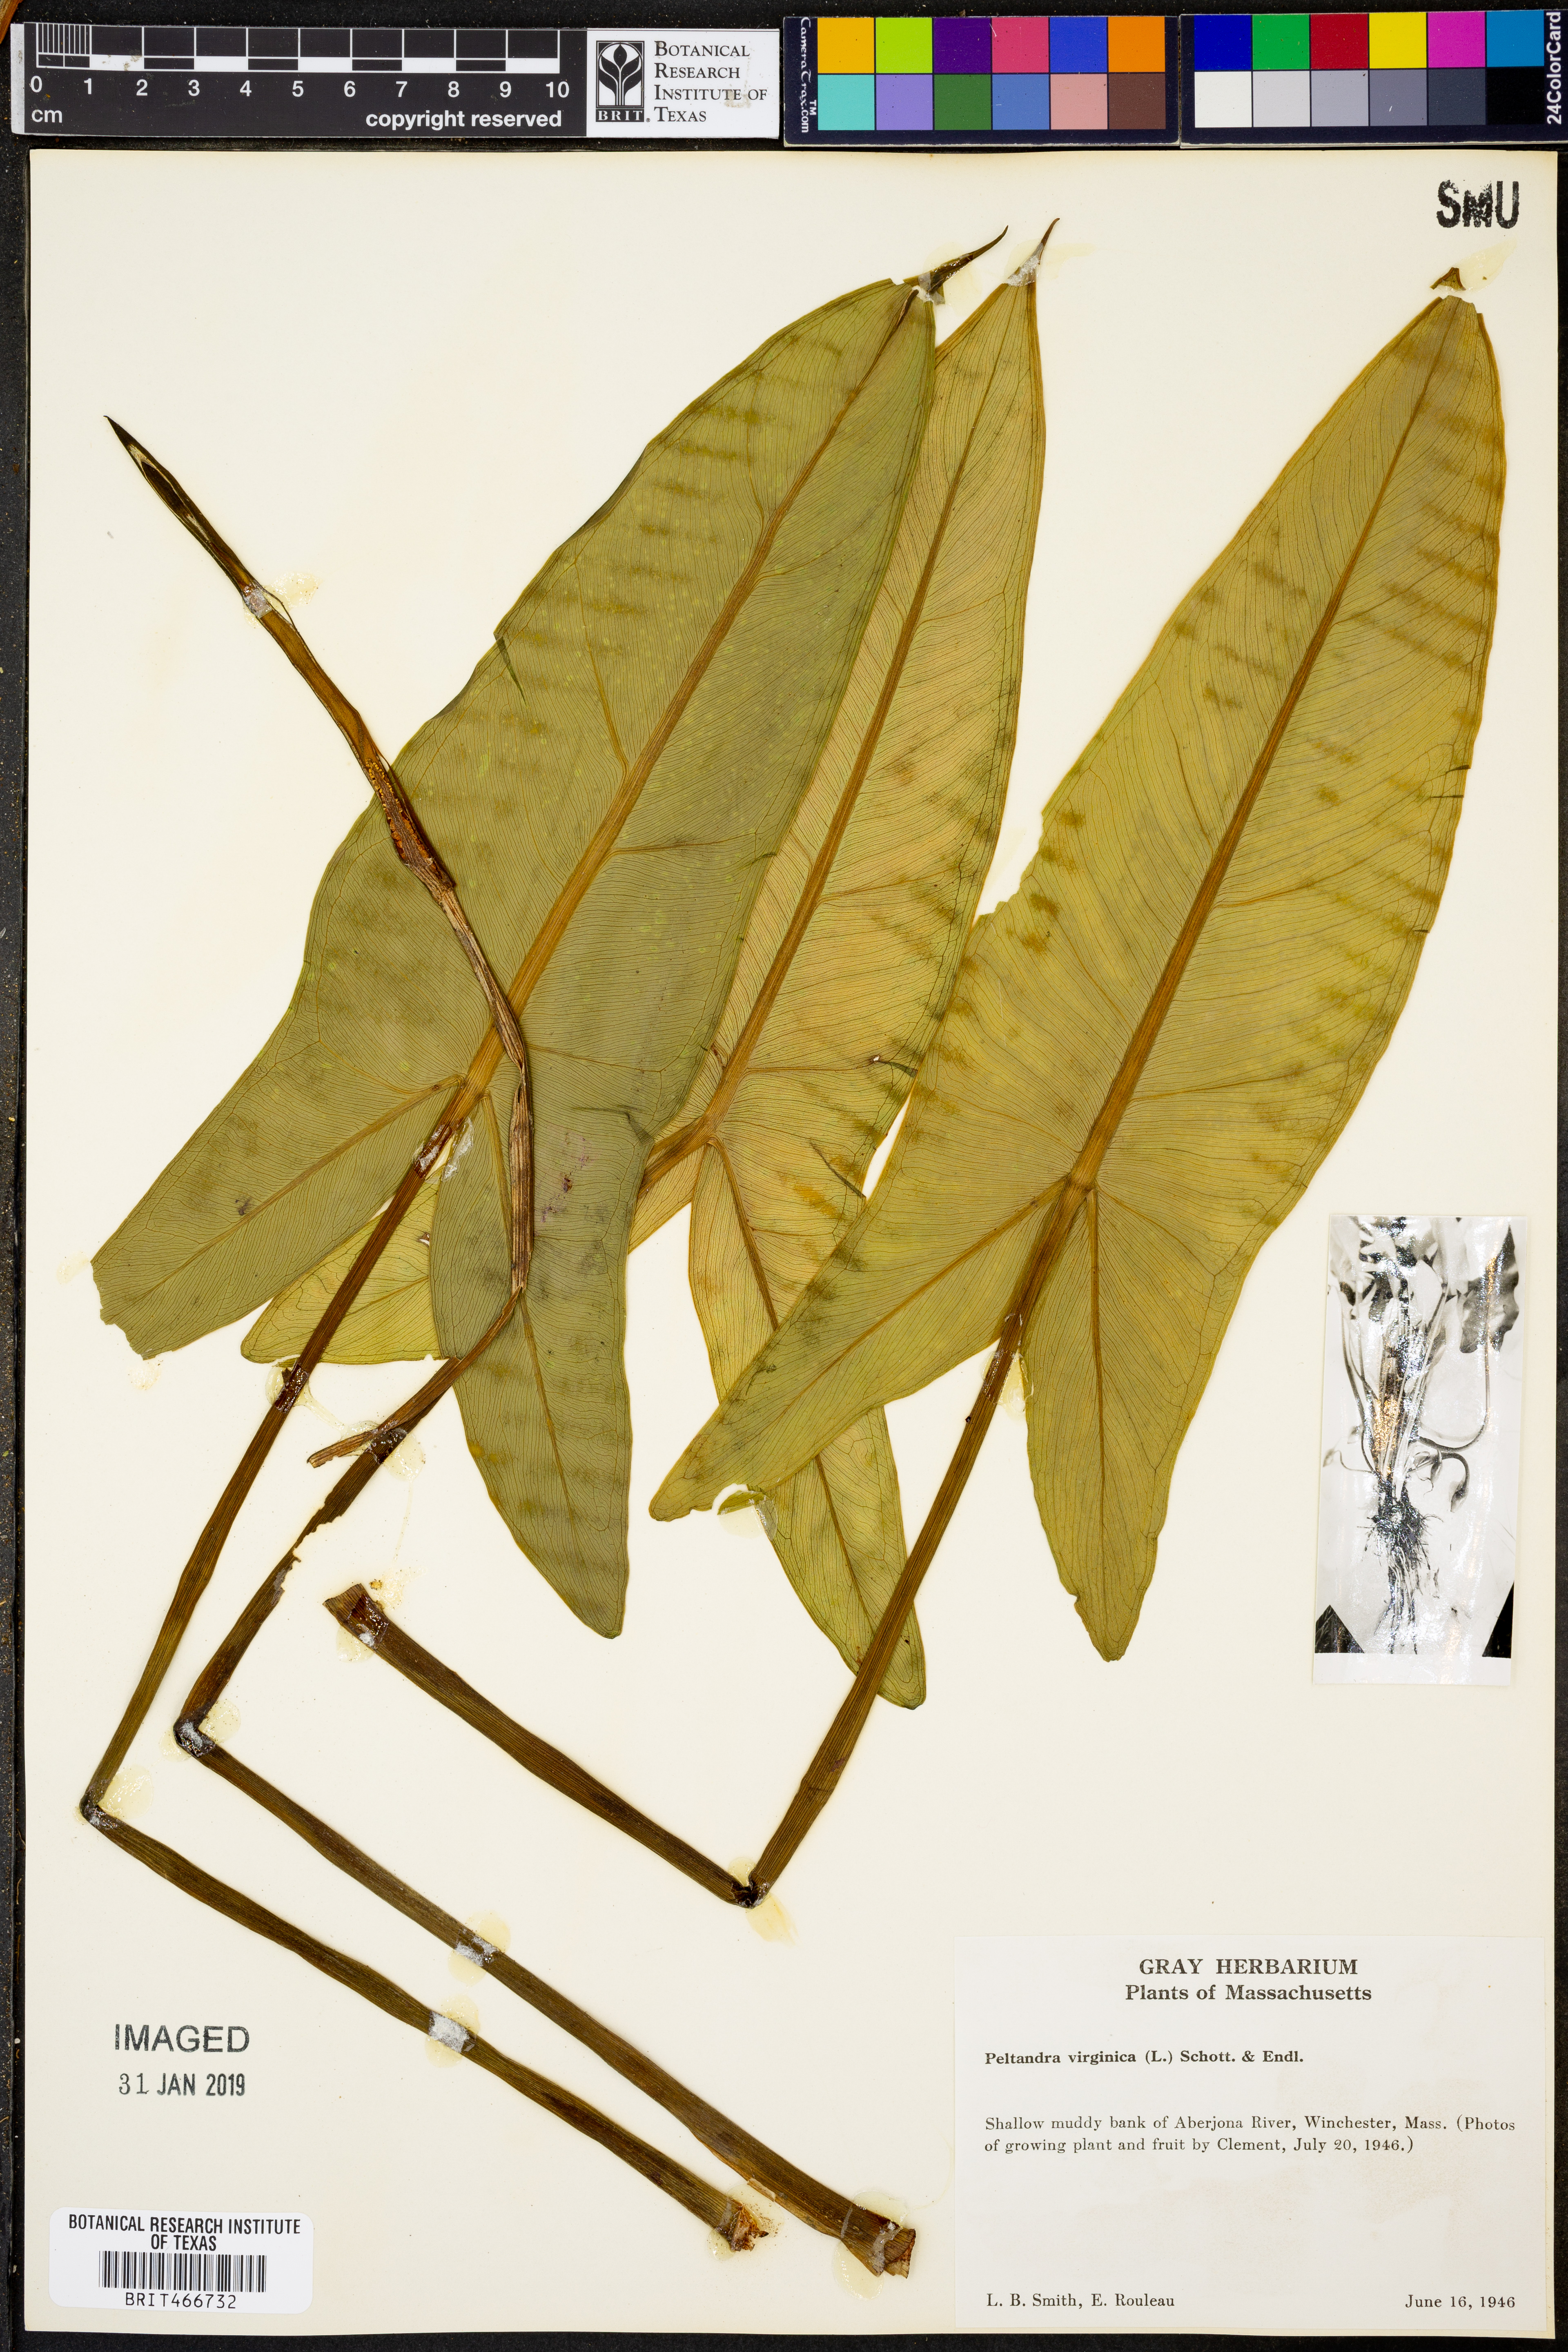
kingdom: Plantae
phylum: Tracheophyta
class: Liliopsida
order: Alismatales
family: Araceae
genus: Peltandra
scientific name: Peltandra virginica
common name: Arrow arum
